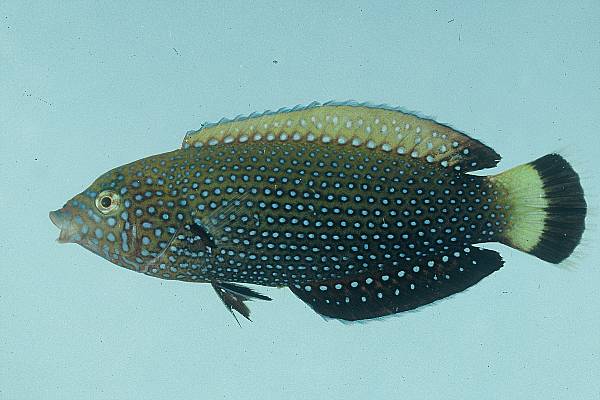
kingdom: Animalia
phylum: Chordata
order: Perciformes
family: Labridae
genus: Anampses
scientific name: Anampses caeruleopunctatus
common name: Bluespotted wrasse
